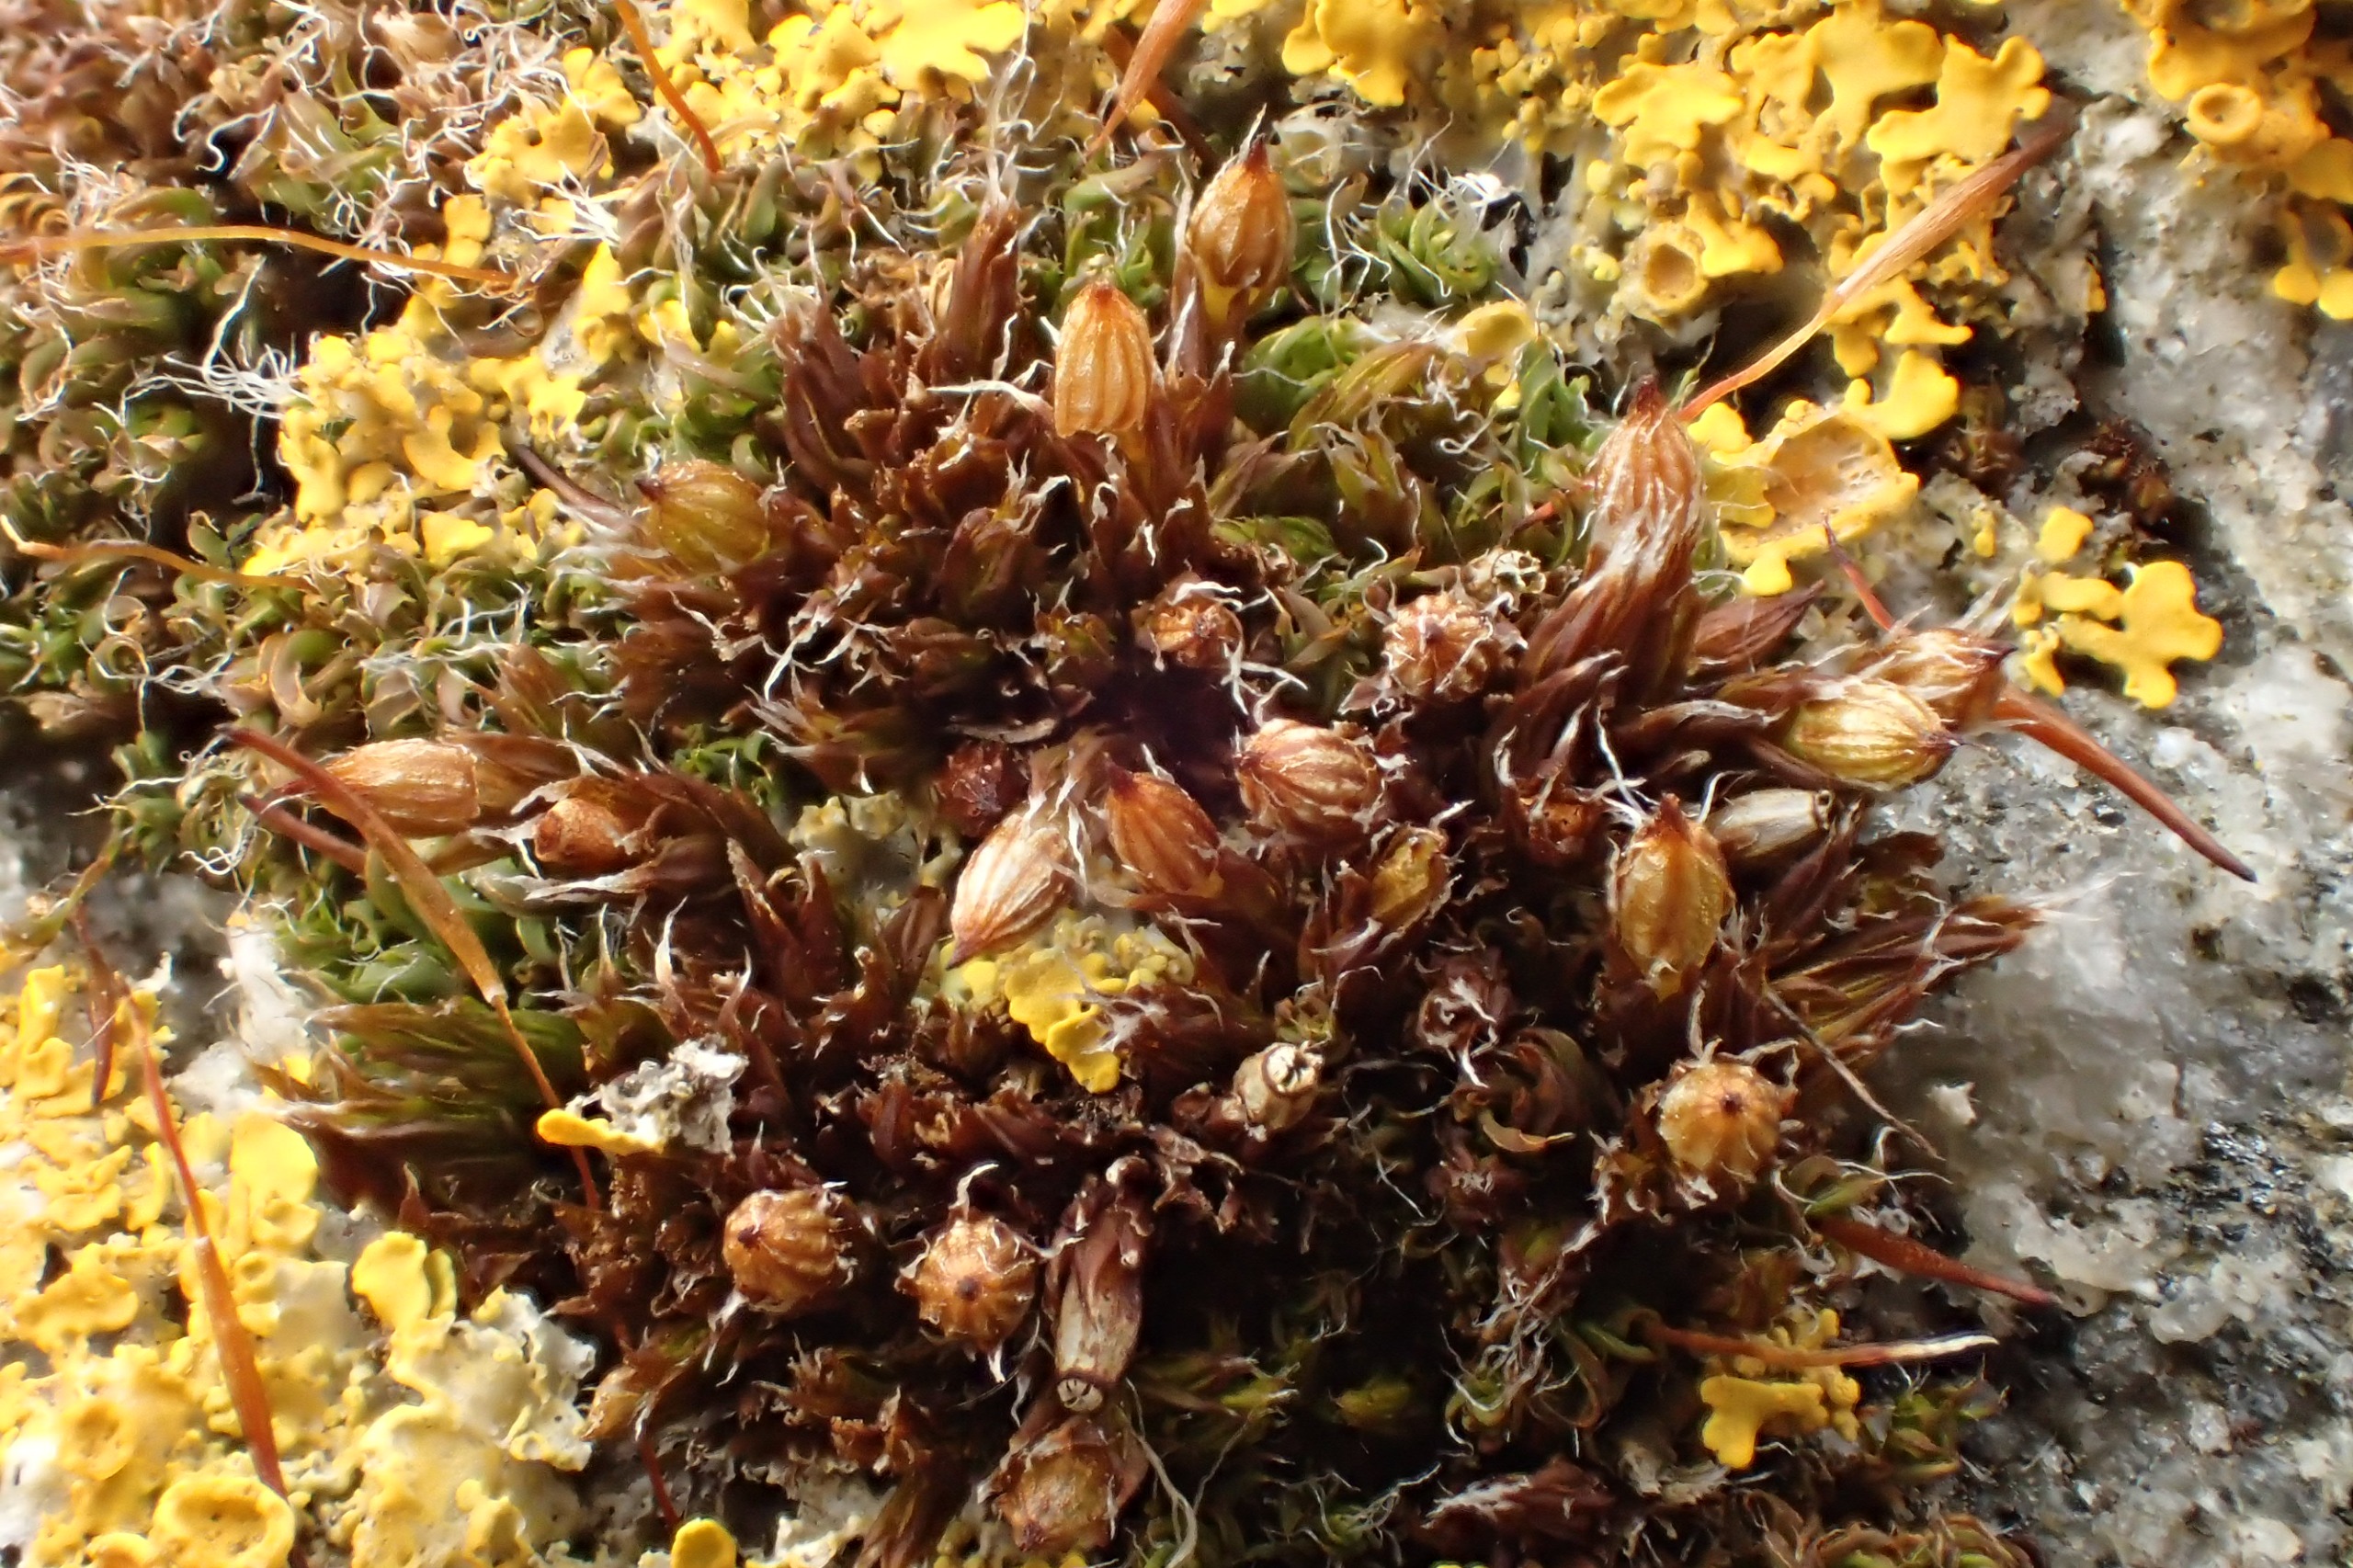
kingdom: Plantae
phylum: Bryophyta
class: Bryopsida
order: Orthotrichales
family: Orthotrichaceae
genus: Orthotrichum
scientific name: Orthotrichum diaphanum
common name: Hårspidset furehætte
